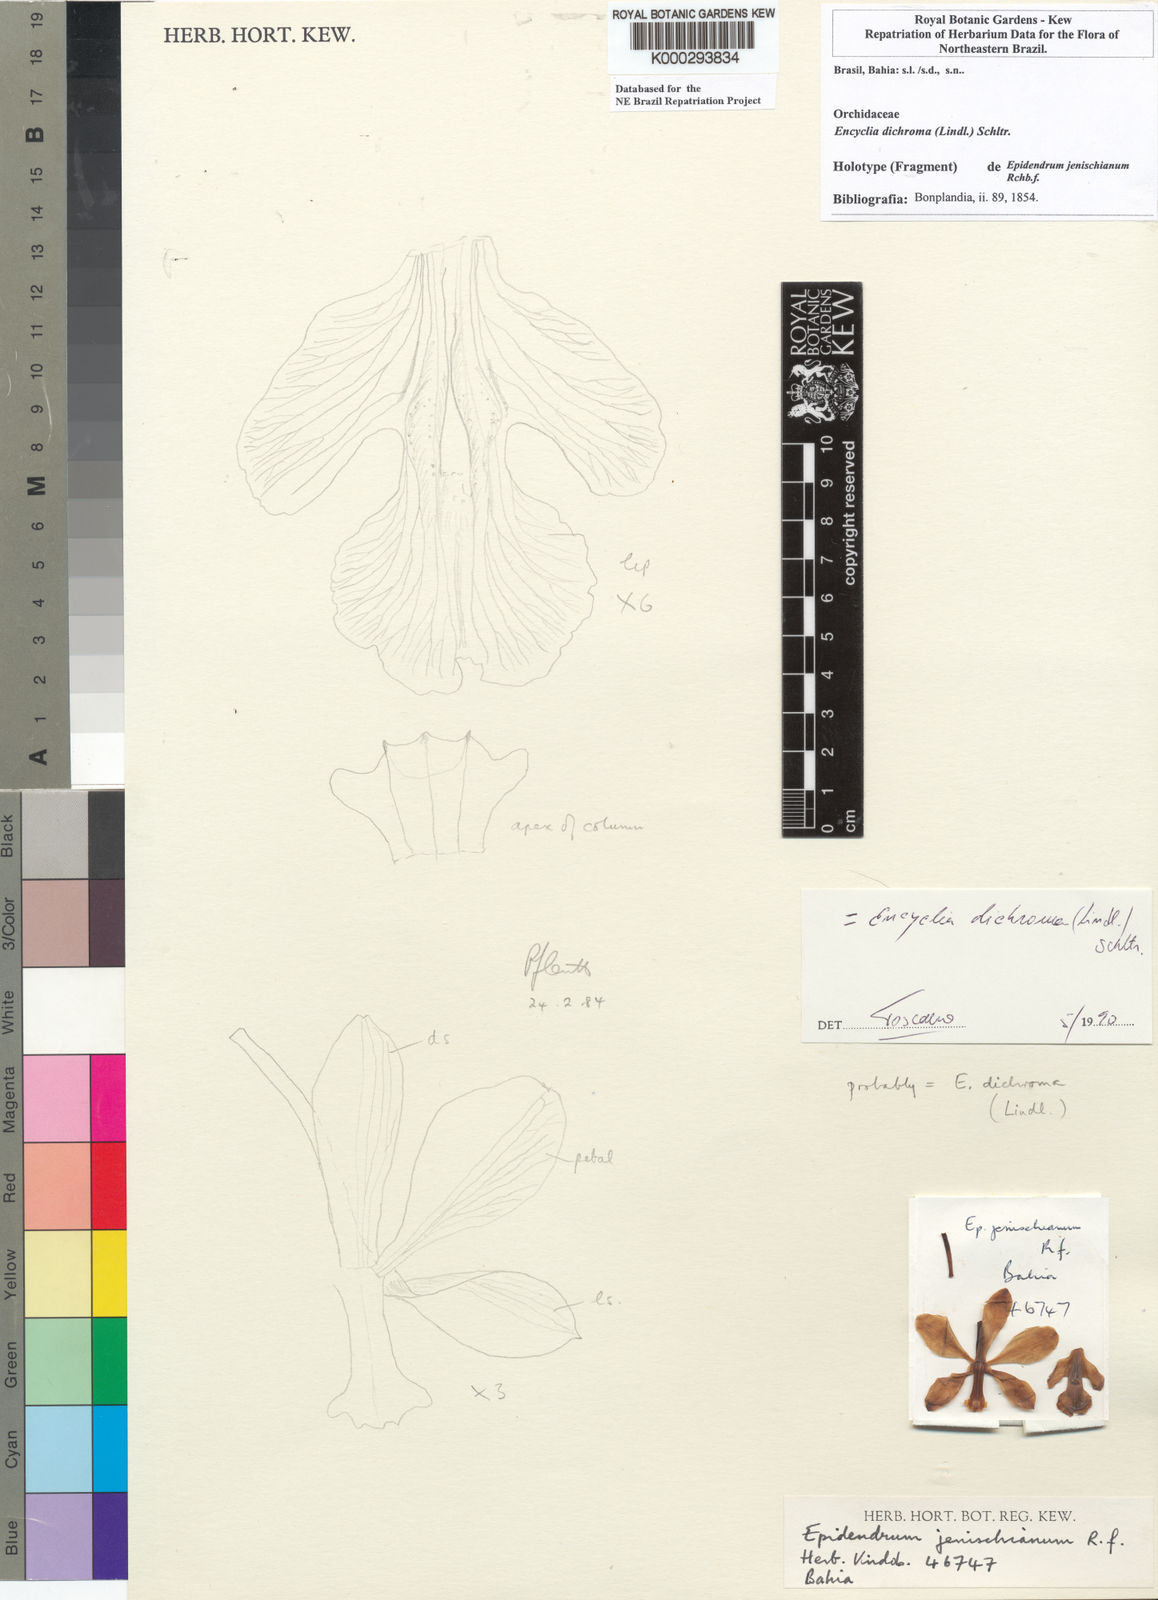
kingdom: Plantae
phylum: Tracheophyta
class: Liliopsida
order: Asparagales
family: Orchidaceae
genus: Encyclia
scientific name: Encyclia jenischiana
